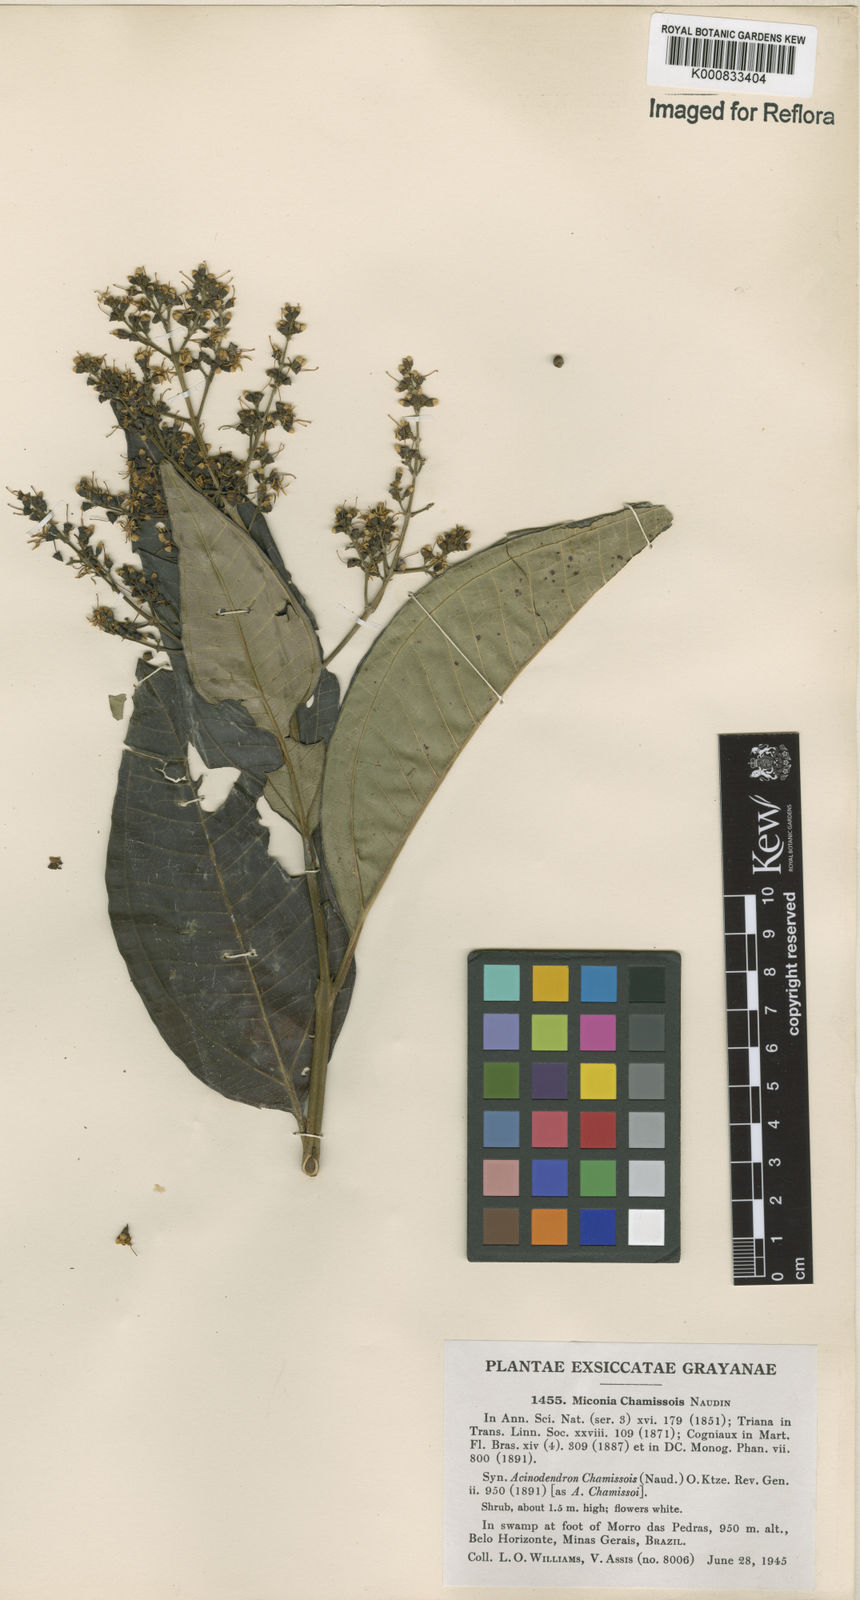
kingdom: Plantae
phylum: Tracheophyta
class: Magnoliopsida
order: Myrtales
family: Melastomataceae
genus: Miconia
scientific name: Miconia chamissois
